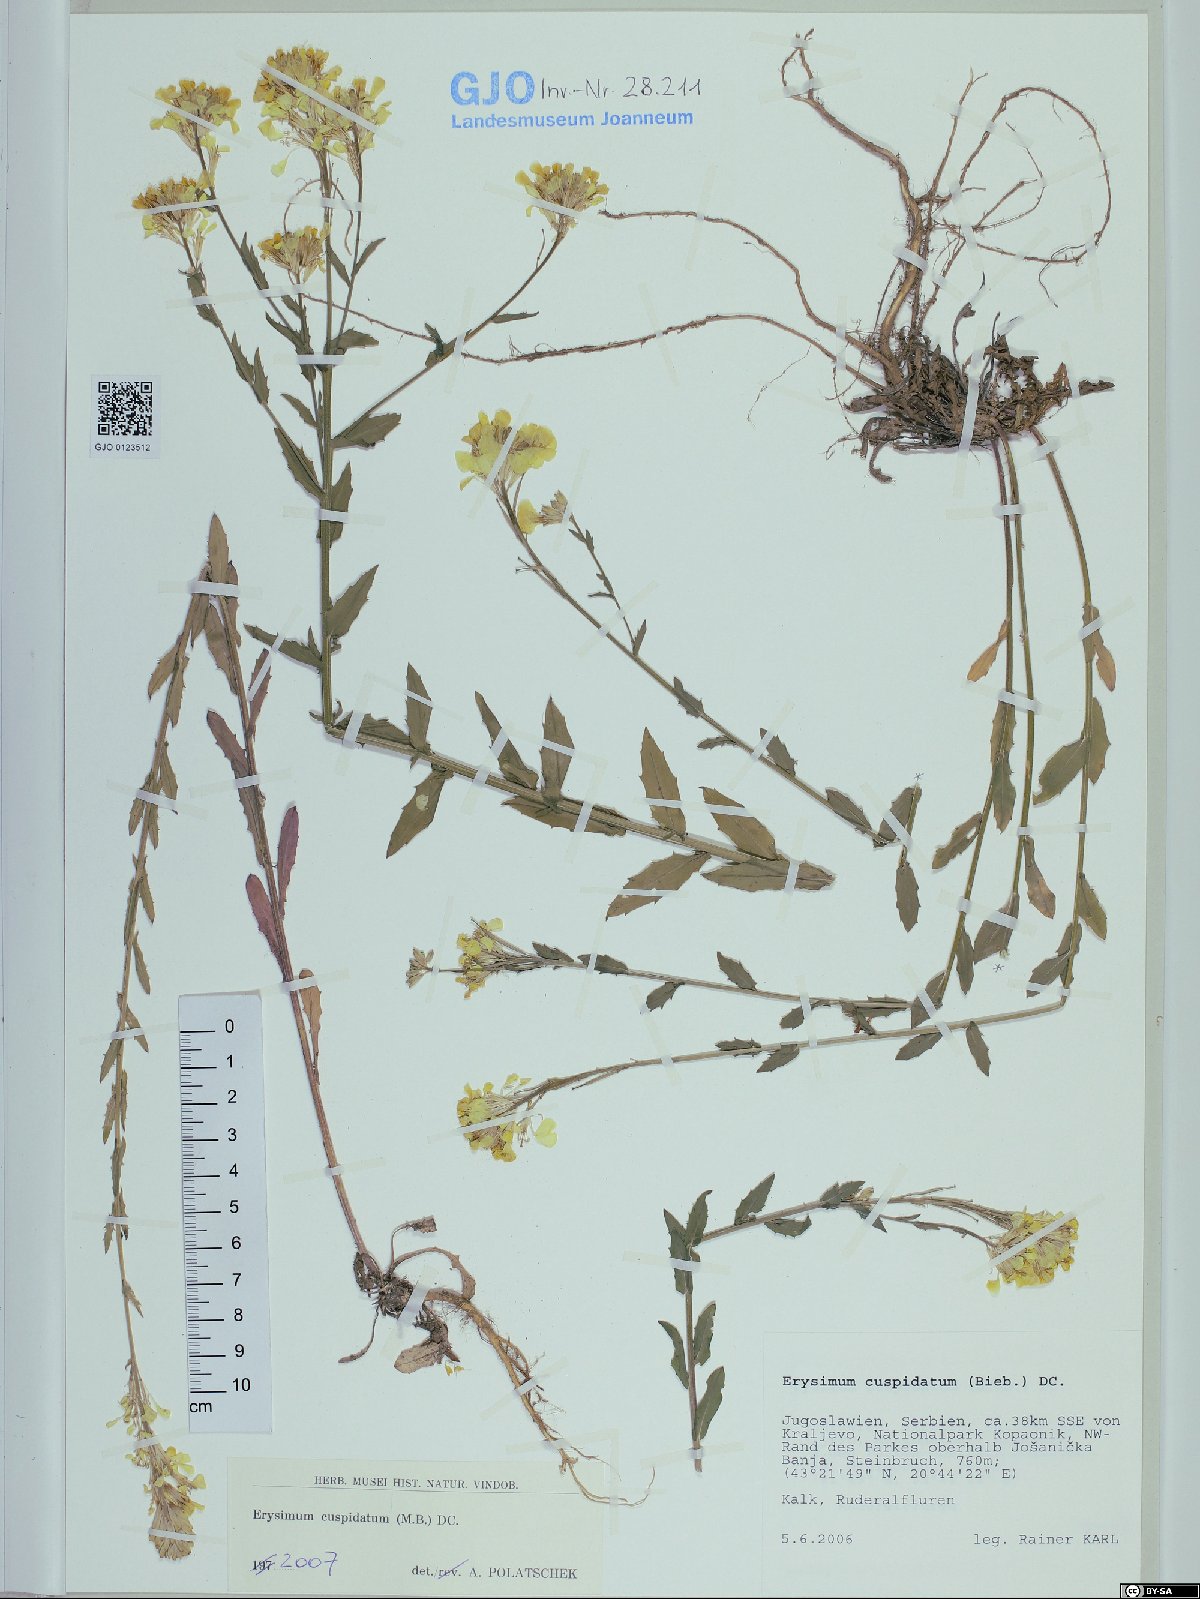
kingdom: Plantae
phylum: Tracheophyta
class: Magnoliopsida
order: Brassicales
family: Brassicaceae
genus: Erysimum
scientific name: Erysimum cuspidatum
